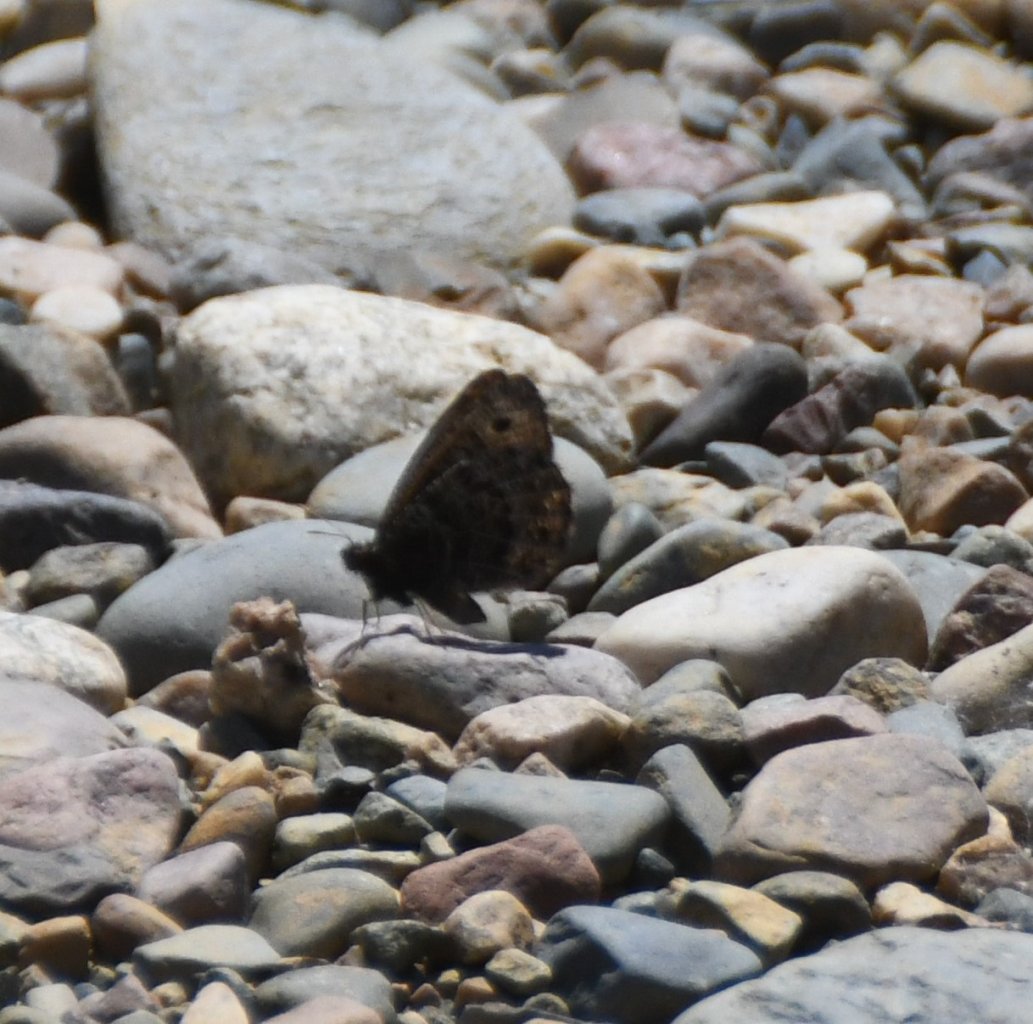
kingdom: Animalia
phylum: Arthropoda
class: Insecta
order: Lepidoptera
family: Nymphalidae
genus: Oeneis
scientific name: Oeneis chryxus
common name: Chryxus Arctic
